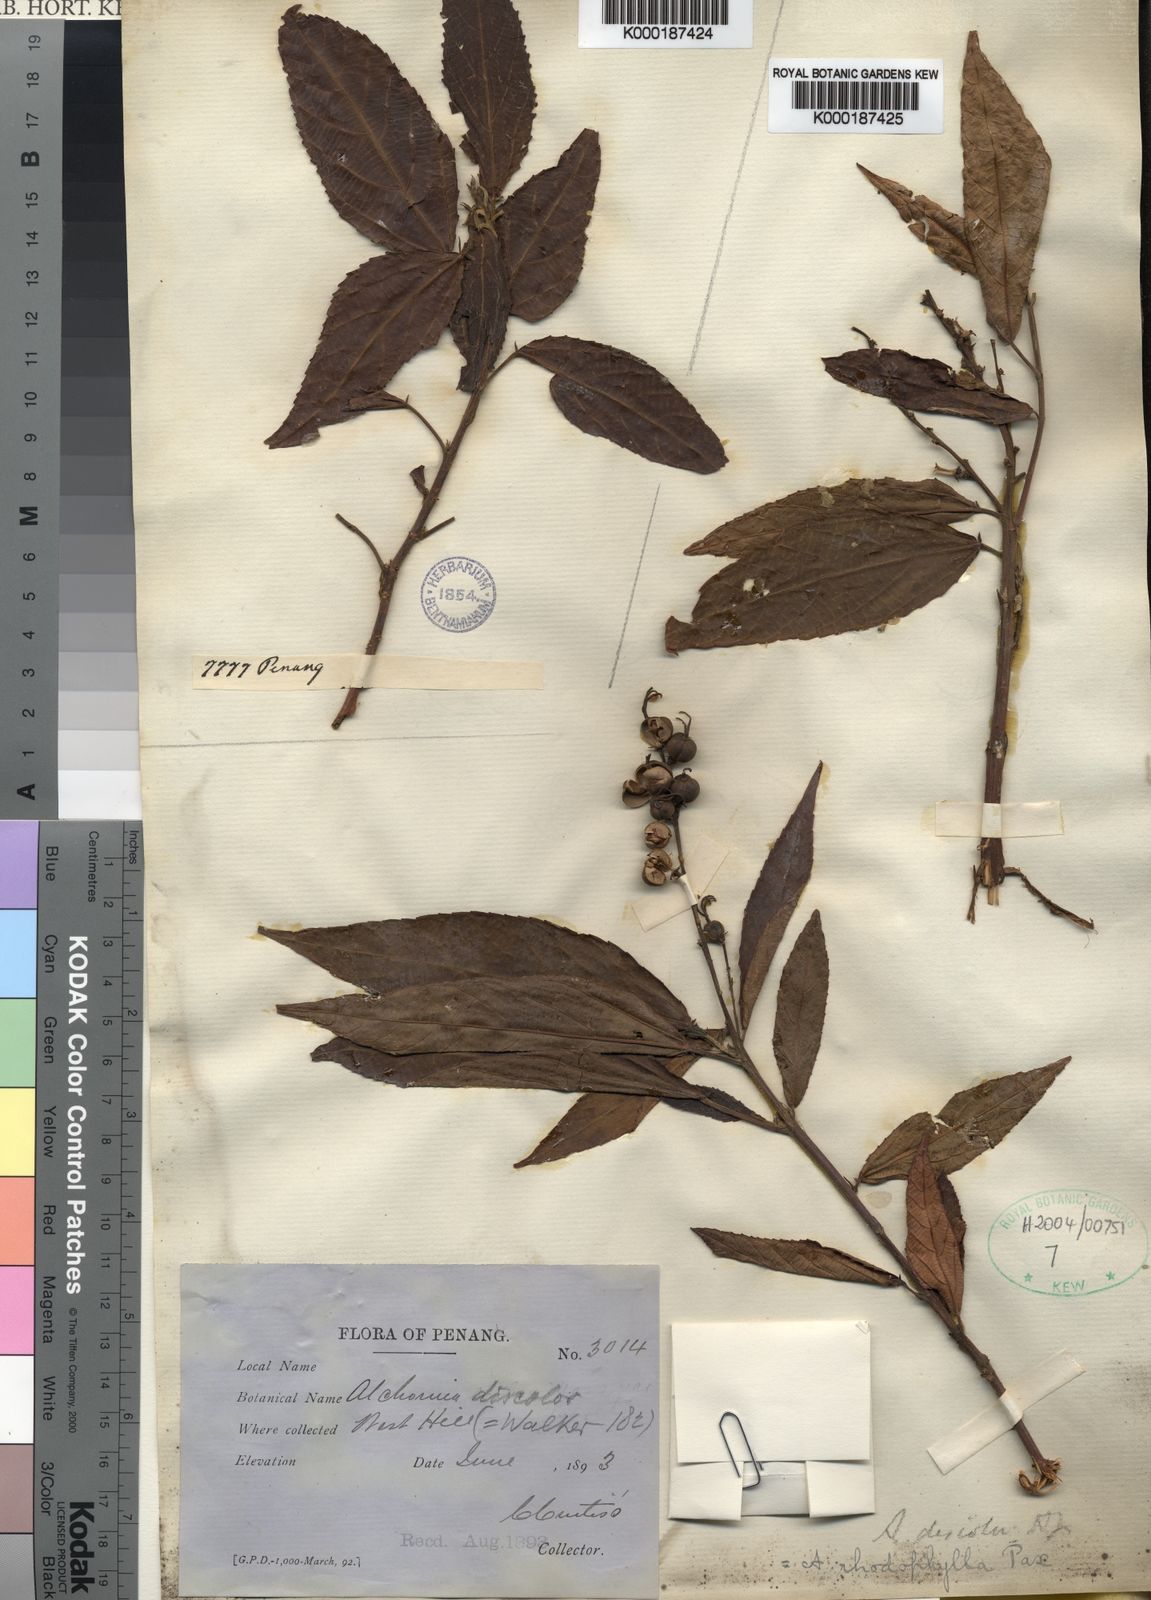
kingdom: Plantae
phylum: Tracheophyta
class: Magnoliopsida
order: Malpighiales
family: Euphorbiaceae
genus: Alchornea
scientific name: Alchornea rhodophylla
